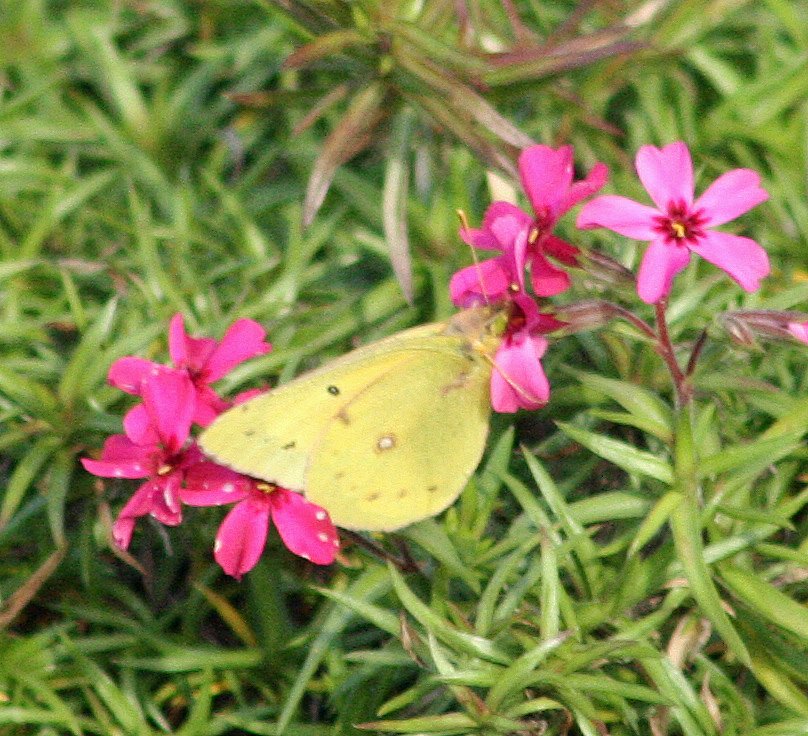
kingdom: Animalia
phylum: Arthropoda
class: Insecta
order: Lepidoptera
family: Pieridae
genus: Colias
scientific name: Colias philodice
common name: Clouded Sulphur
